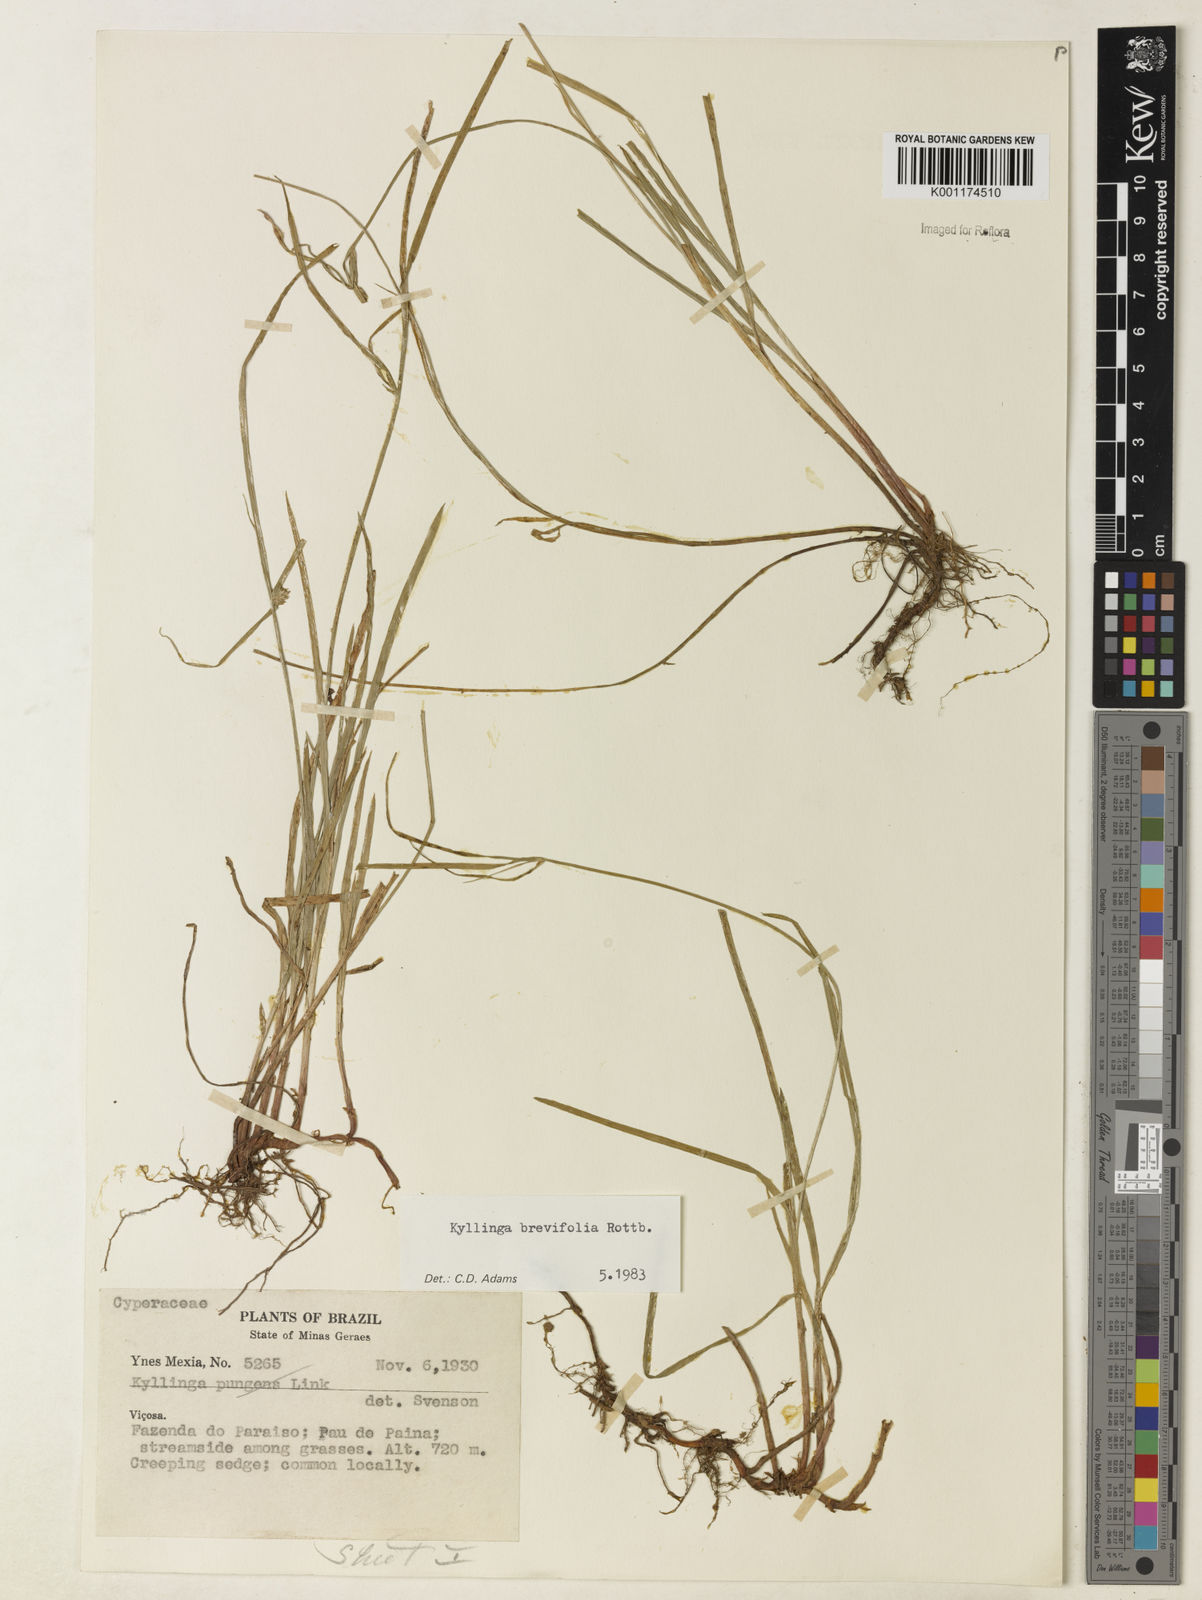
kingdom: Plantae
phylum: Tracheophyta
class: Liliopsida
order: Poales
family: Cyperaceae
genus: Cyperus
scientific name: Cyperus brevifolius
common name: Globe kyllinga
